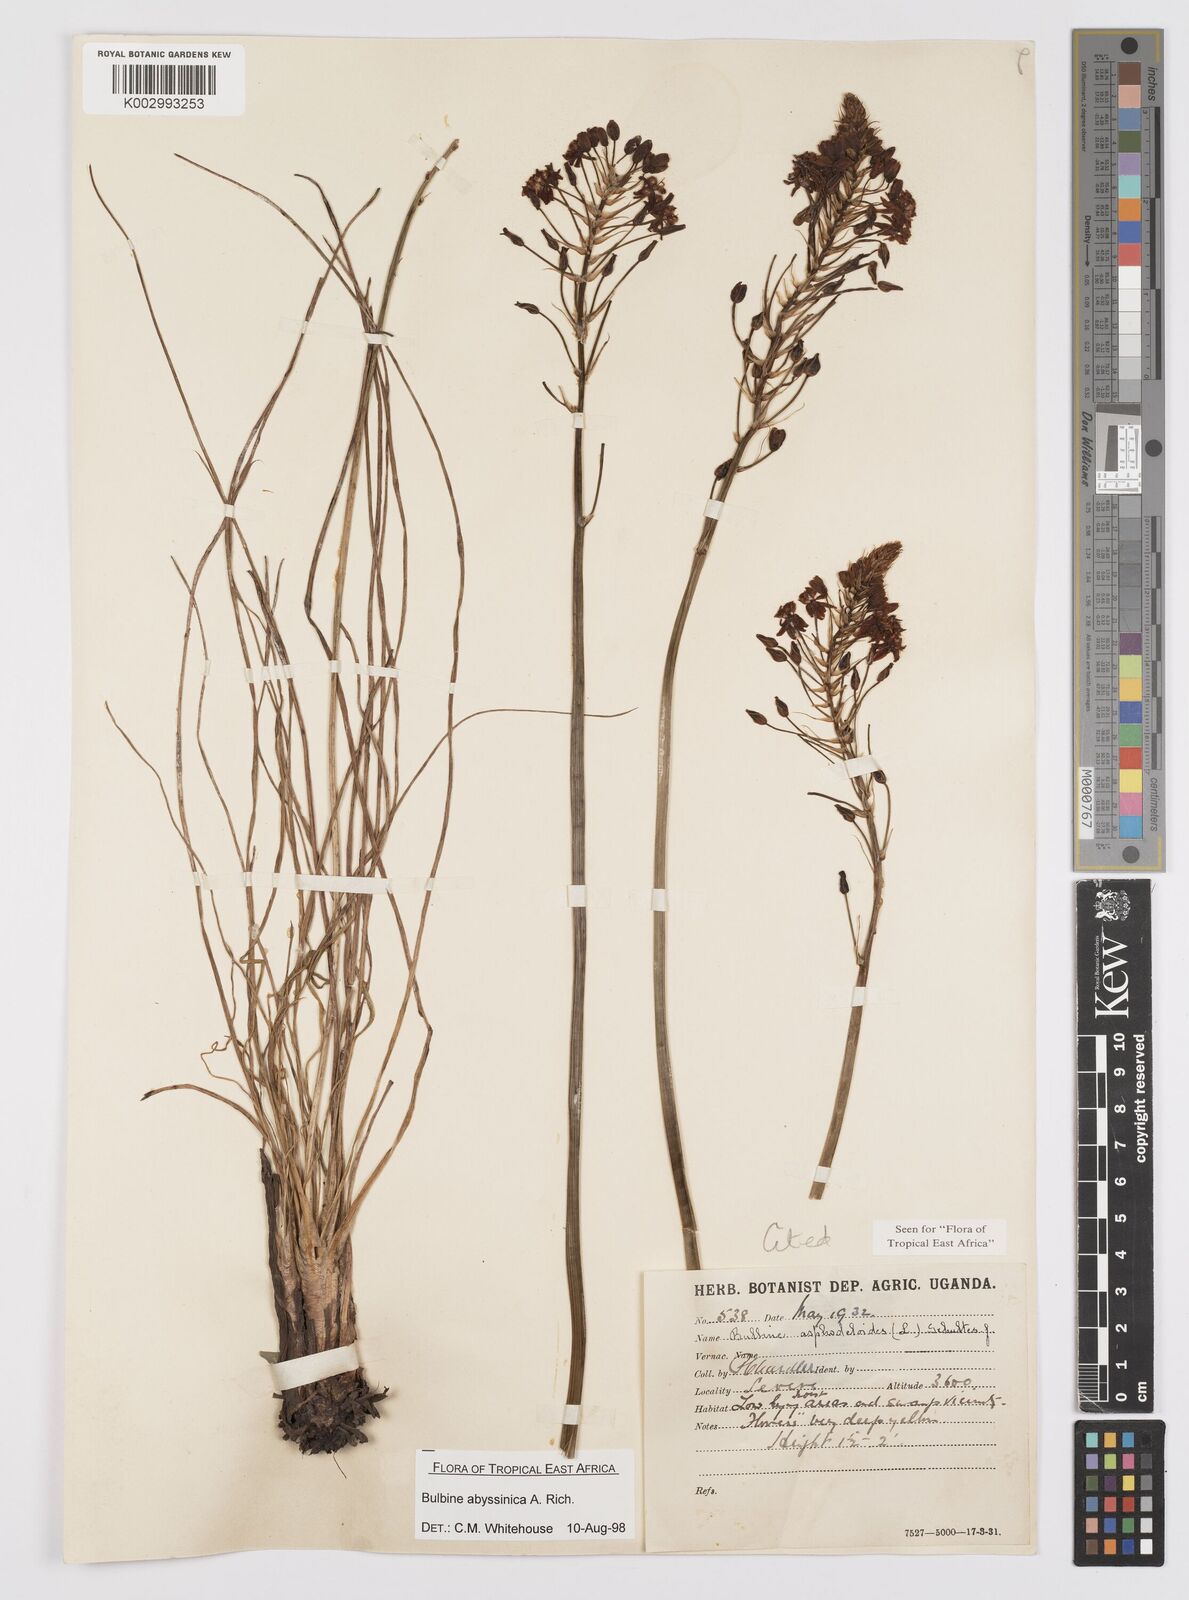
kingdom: Plantae
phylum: Tracheophyta
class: Liliopsida
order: Asparagales
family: Asphodelaceae
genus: Bulbine
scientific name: Bulbine abyssinica
